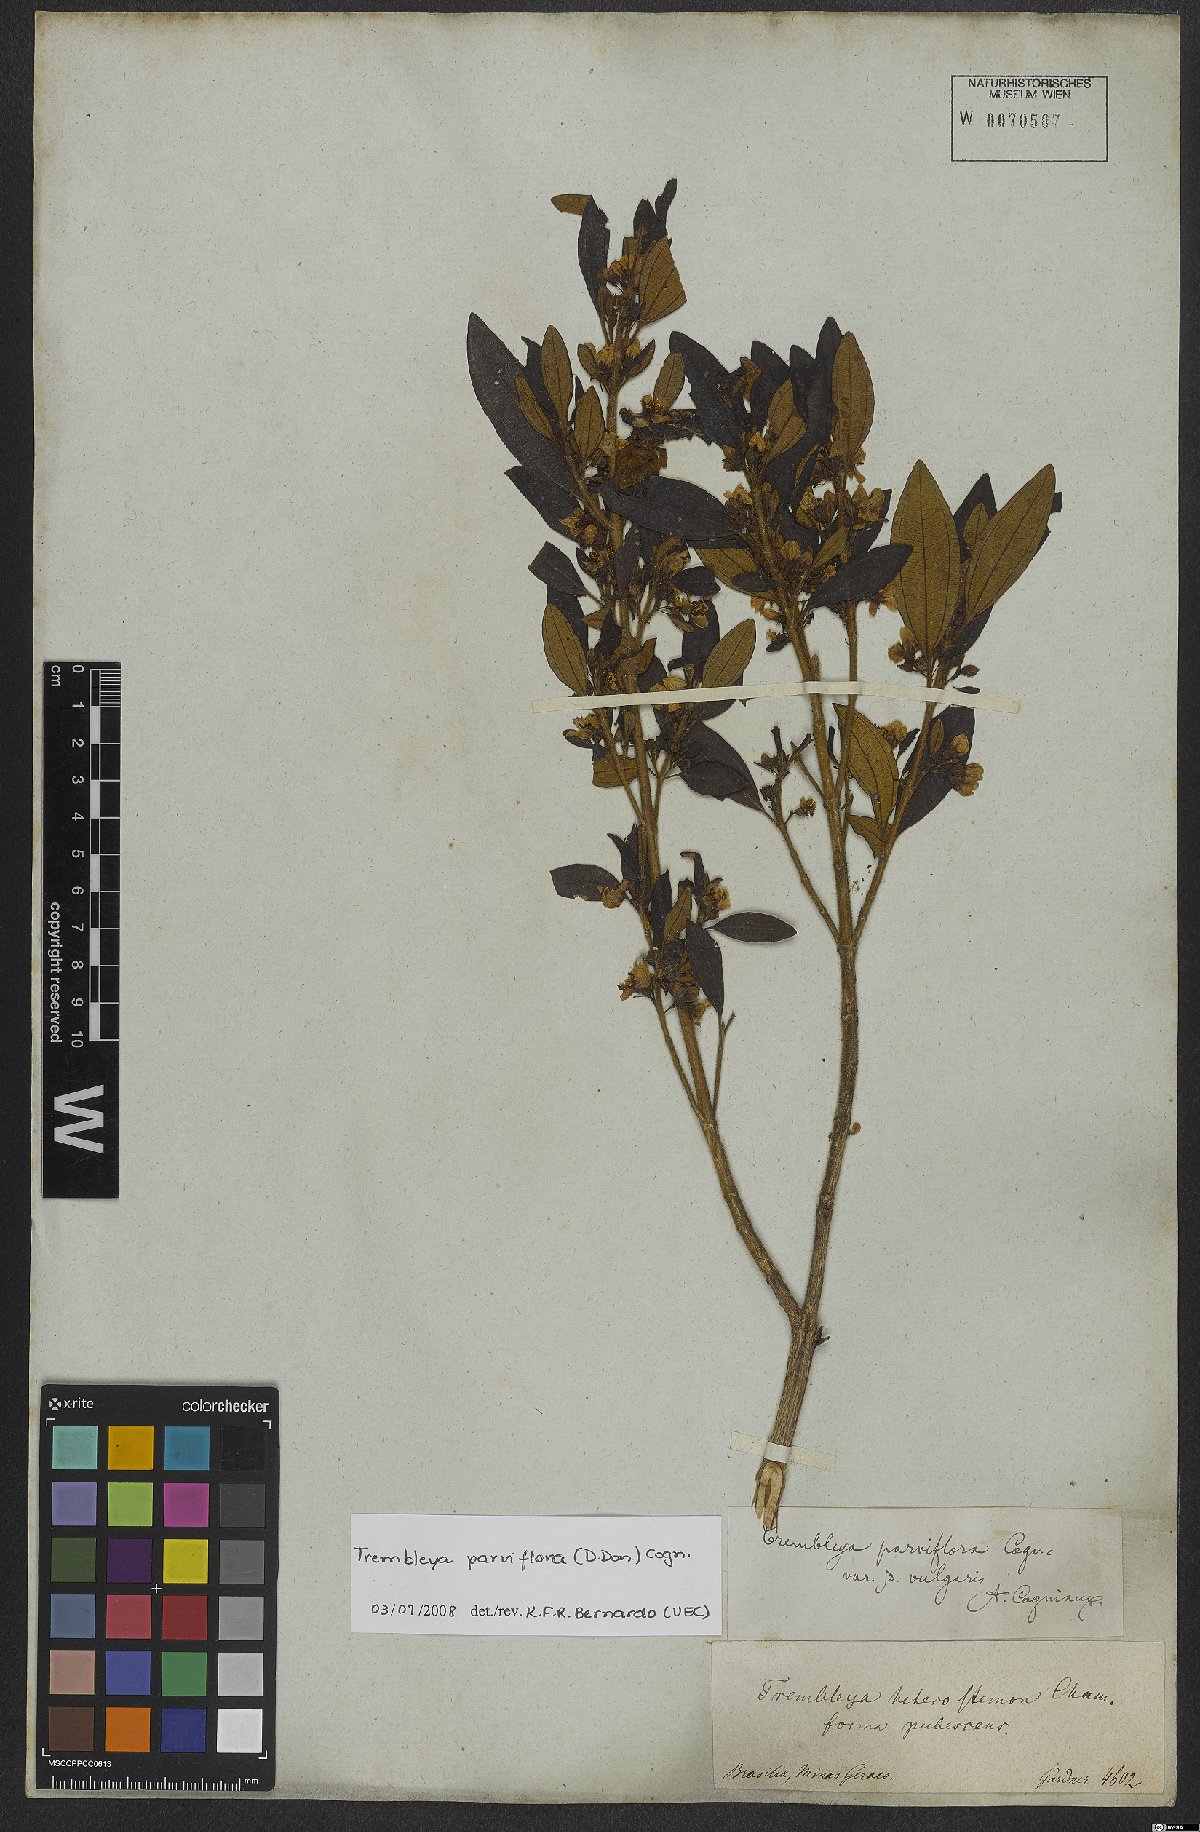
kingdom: Plantae
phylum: Tracheophyta
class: Magnoliopsida
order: Myrtales
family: Melastomataceae
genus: Microlicia
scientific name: Microlicia parviflora
